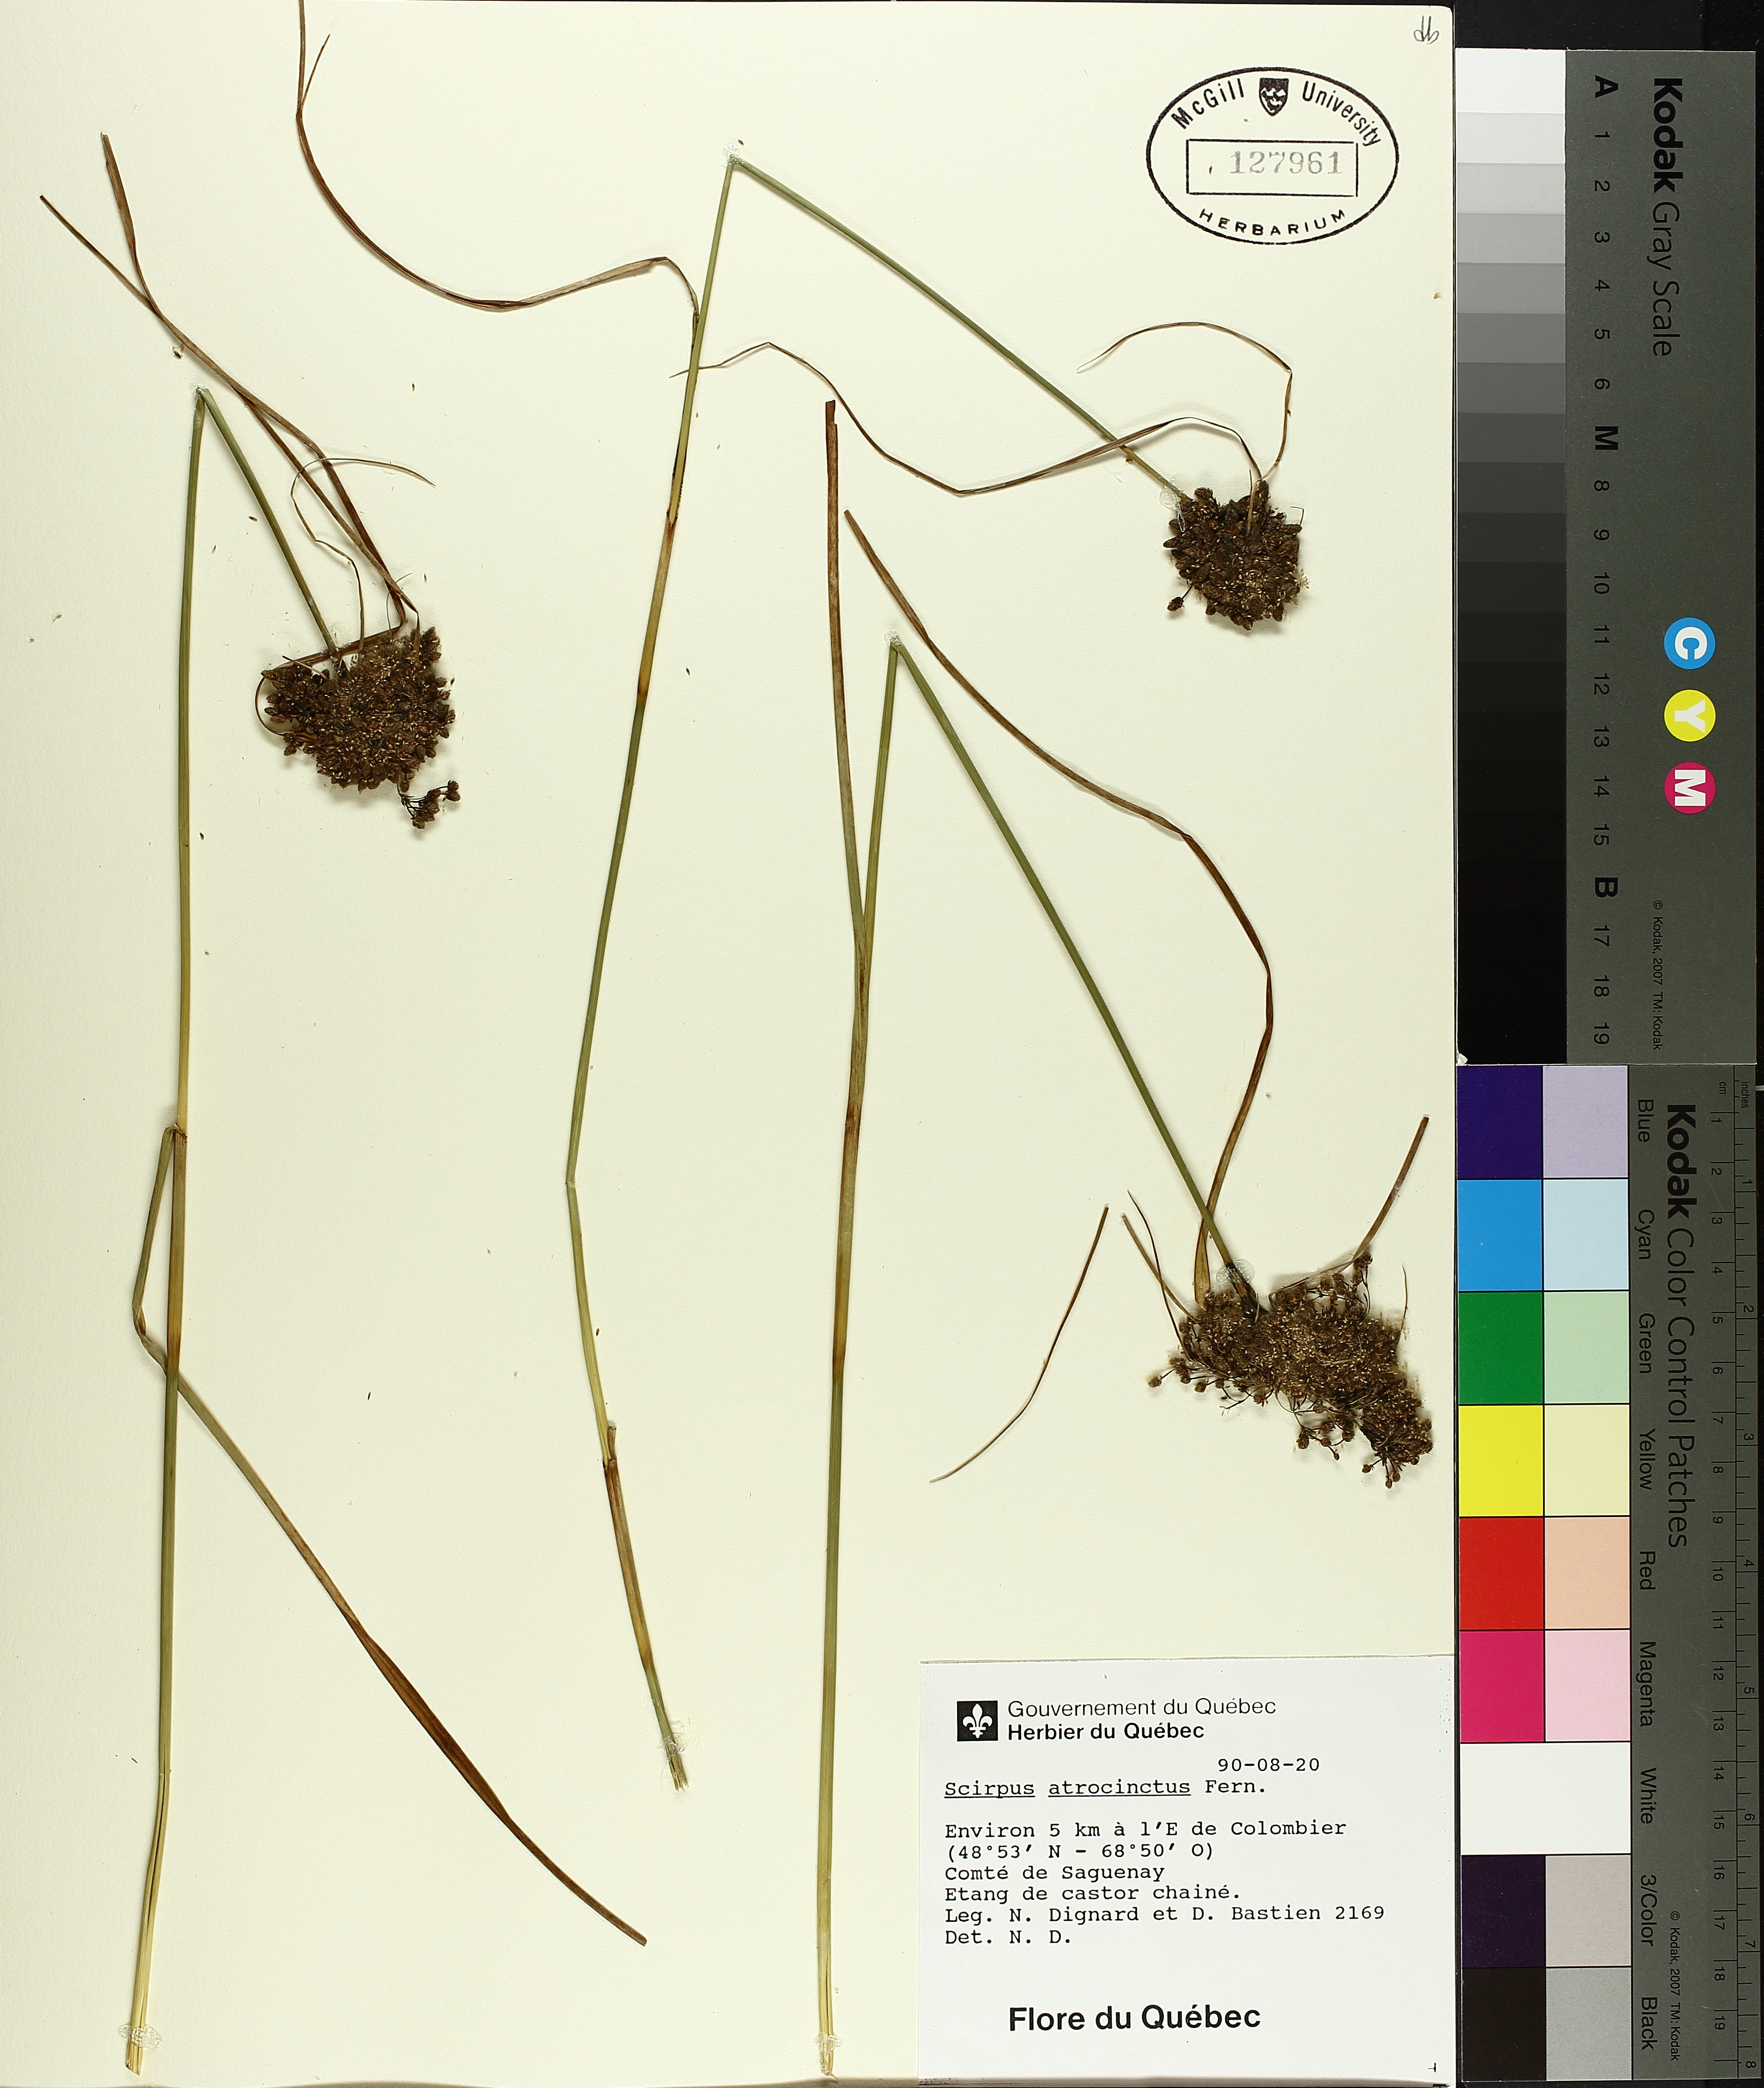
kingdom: Plantae
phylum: Tracheophyta
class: Liliopsida
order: Poales
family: Cyperaceae
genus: Scirpus
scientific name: Scirpus atrocinctus
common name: Black-girdled bulrush
